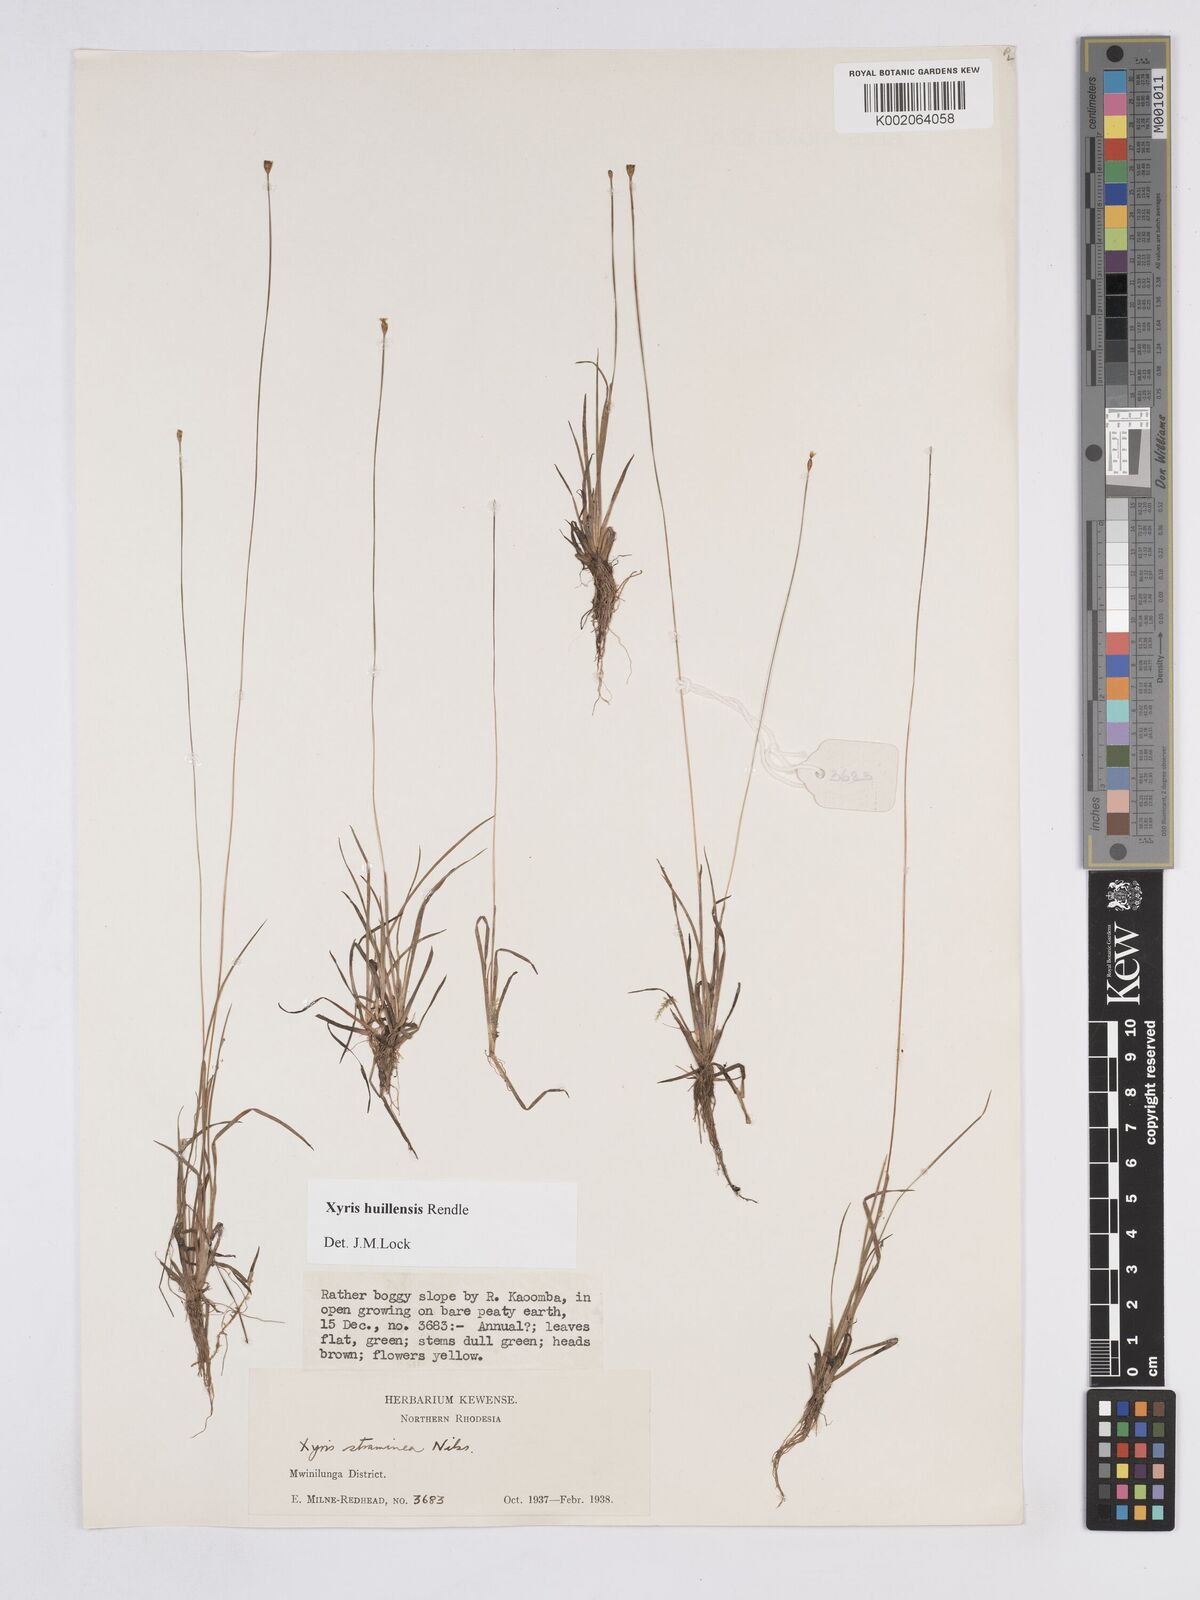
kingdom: Plantae
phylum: Tracheophyta
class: Liliopsida
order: Poales
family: Xyridaceae
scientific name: Xyridaceae
